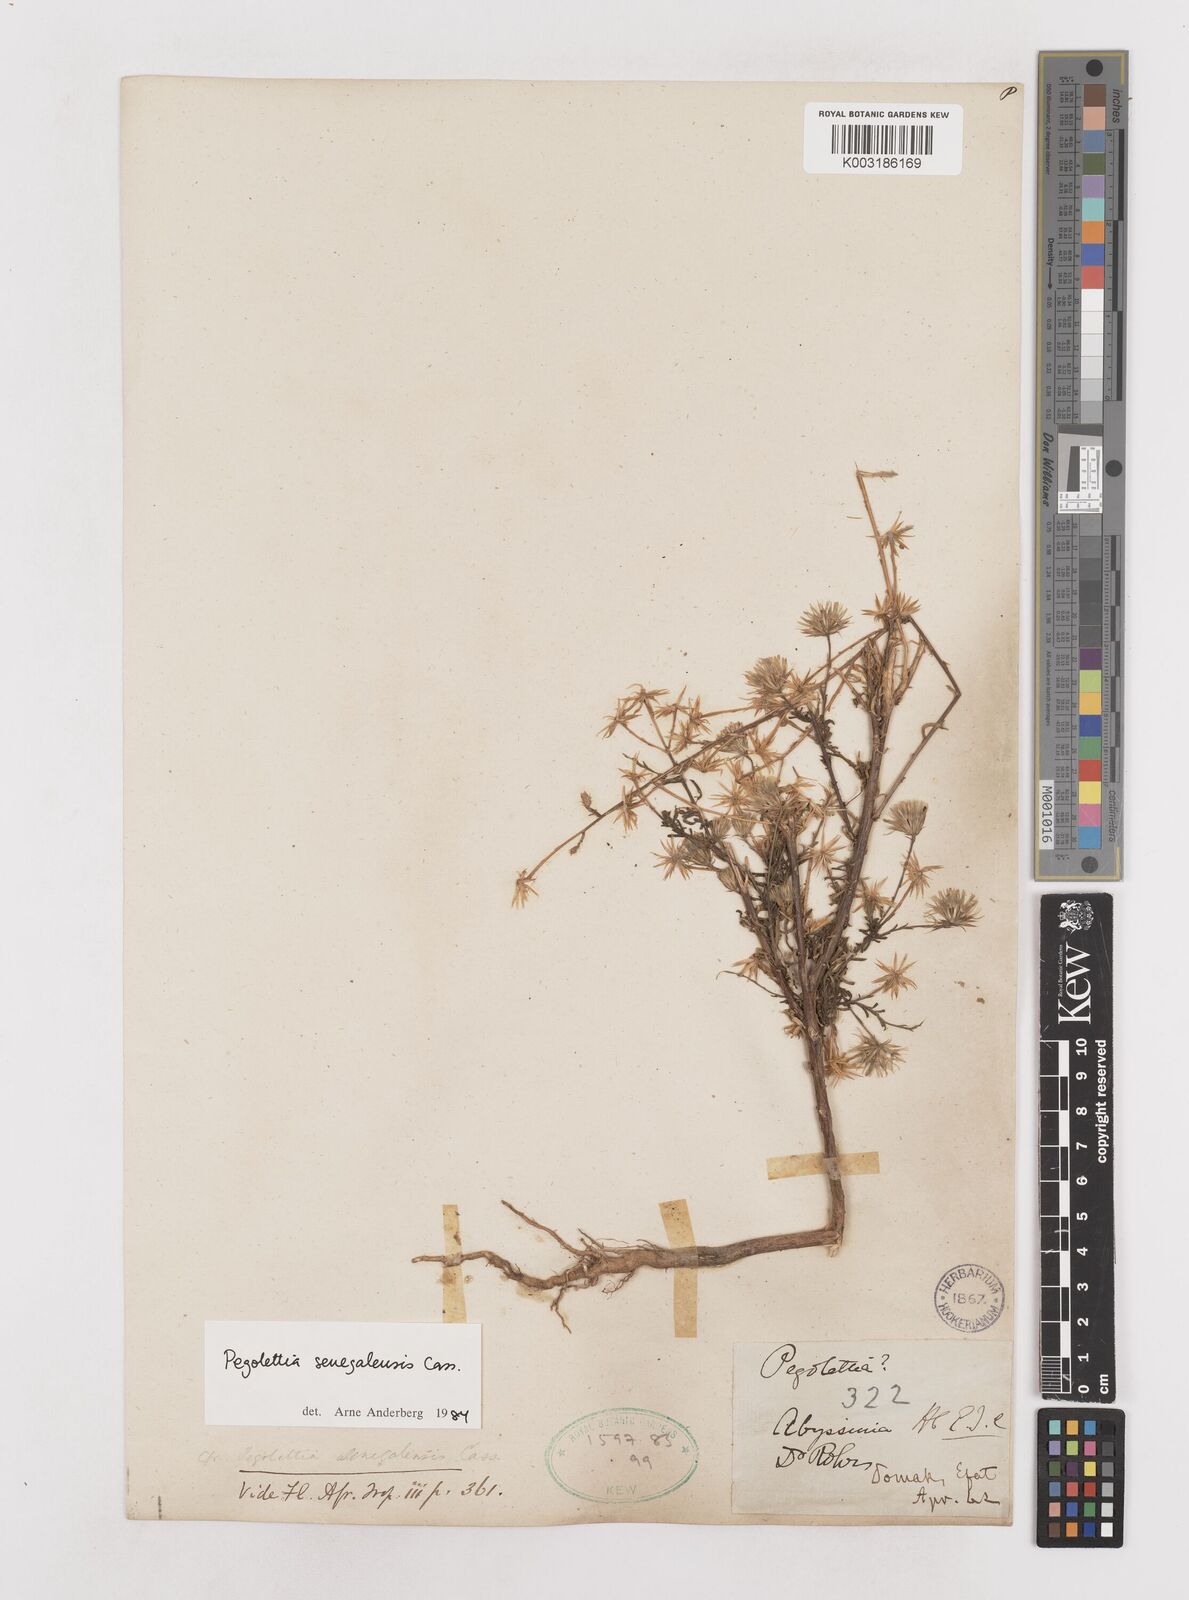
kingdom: Plantae
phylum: Tracheophyta
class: Magnoliopsida
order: Asterales
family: Asteraceae
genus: Pegolettia
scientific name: Pegolettia senegalensis
